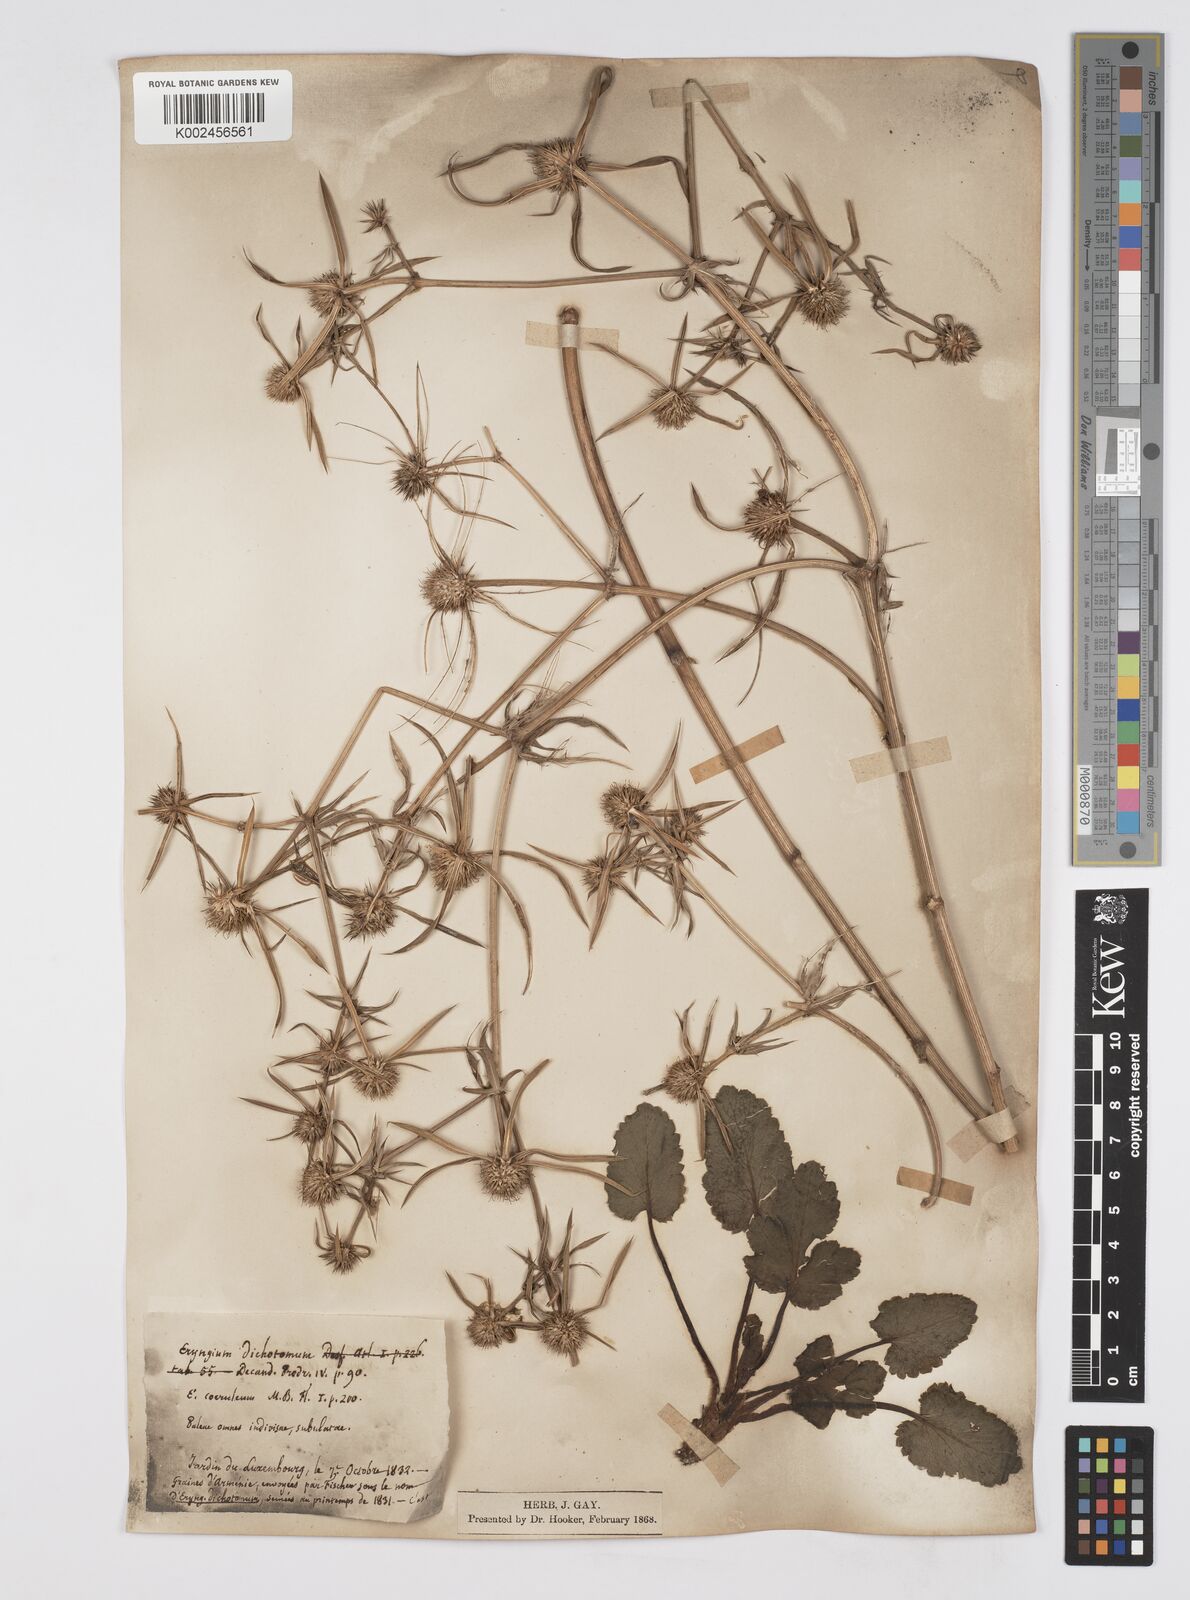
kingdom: Plantae
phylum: Tracheophyta
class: Magnoliopsida
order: Apiales
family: Apiaceae
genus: Eryngium
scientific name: Eryngium caeruleum
